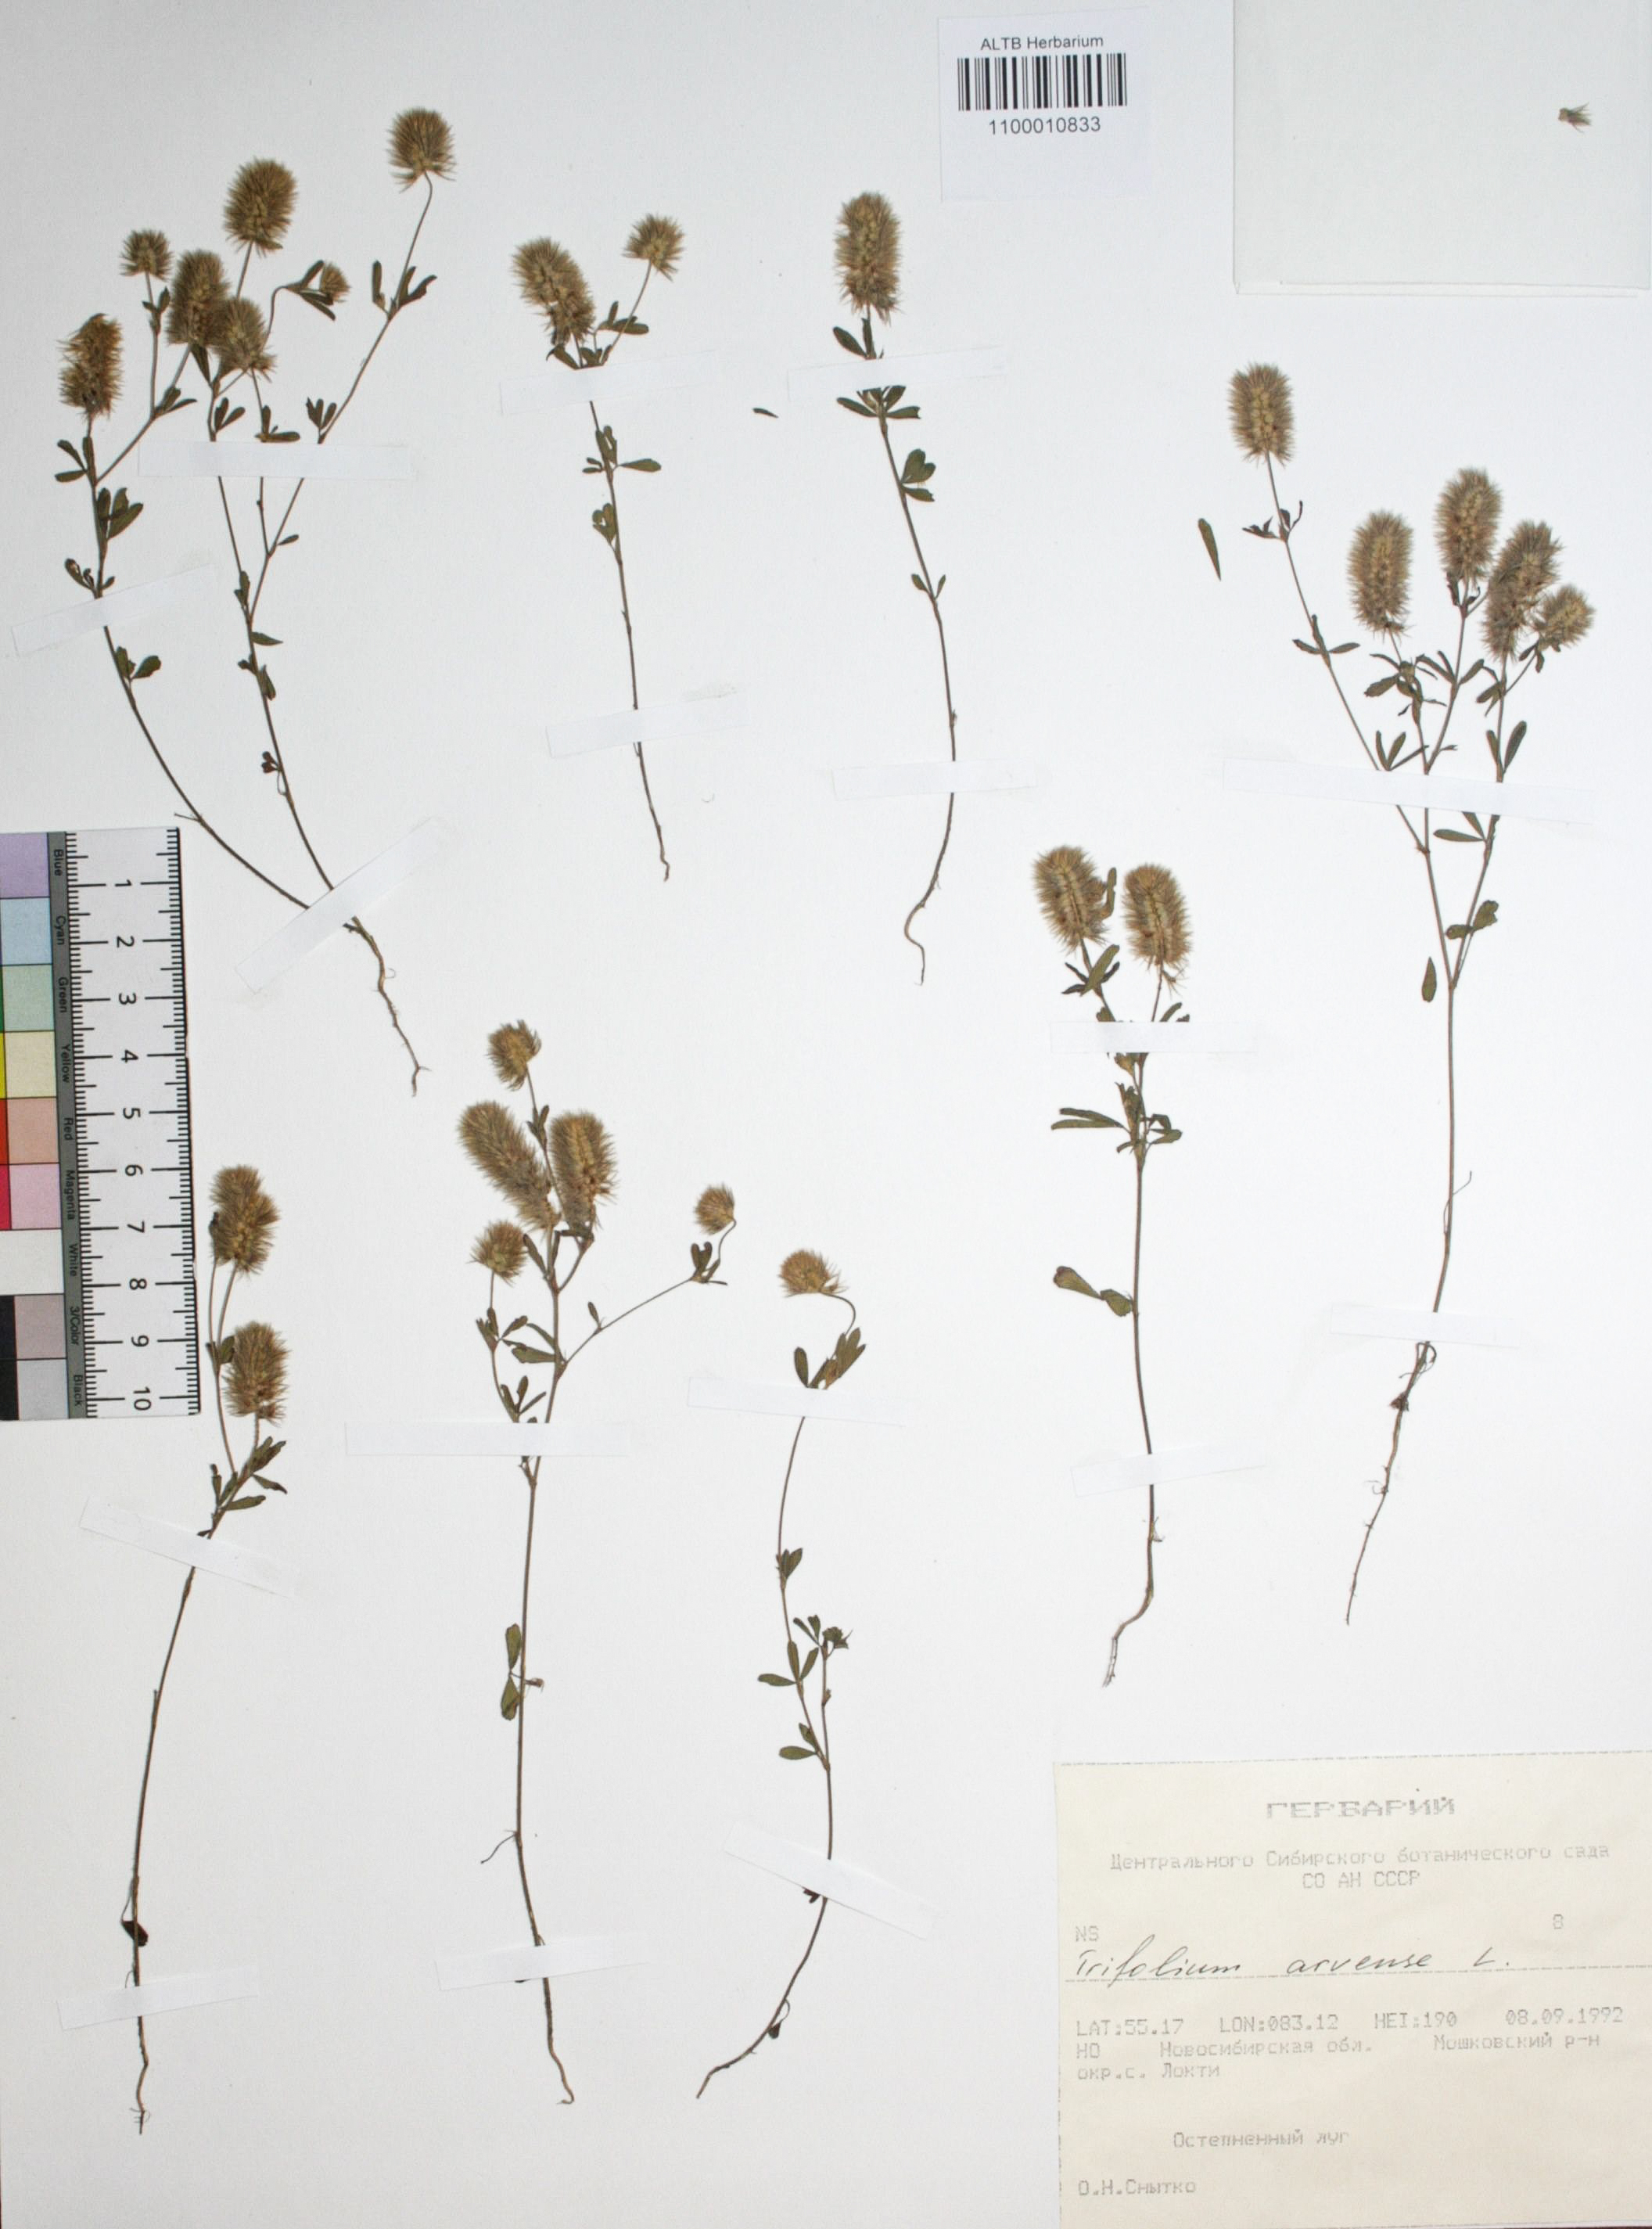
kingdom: Plantae
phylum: Tracheophyta
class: Magnoliopsida
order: Fabales
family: Fabaceae
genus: Trifolium
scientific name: Trifolium arvense
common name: Hare's-foot clover
